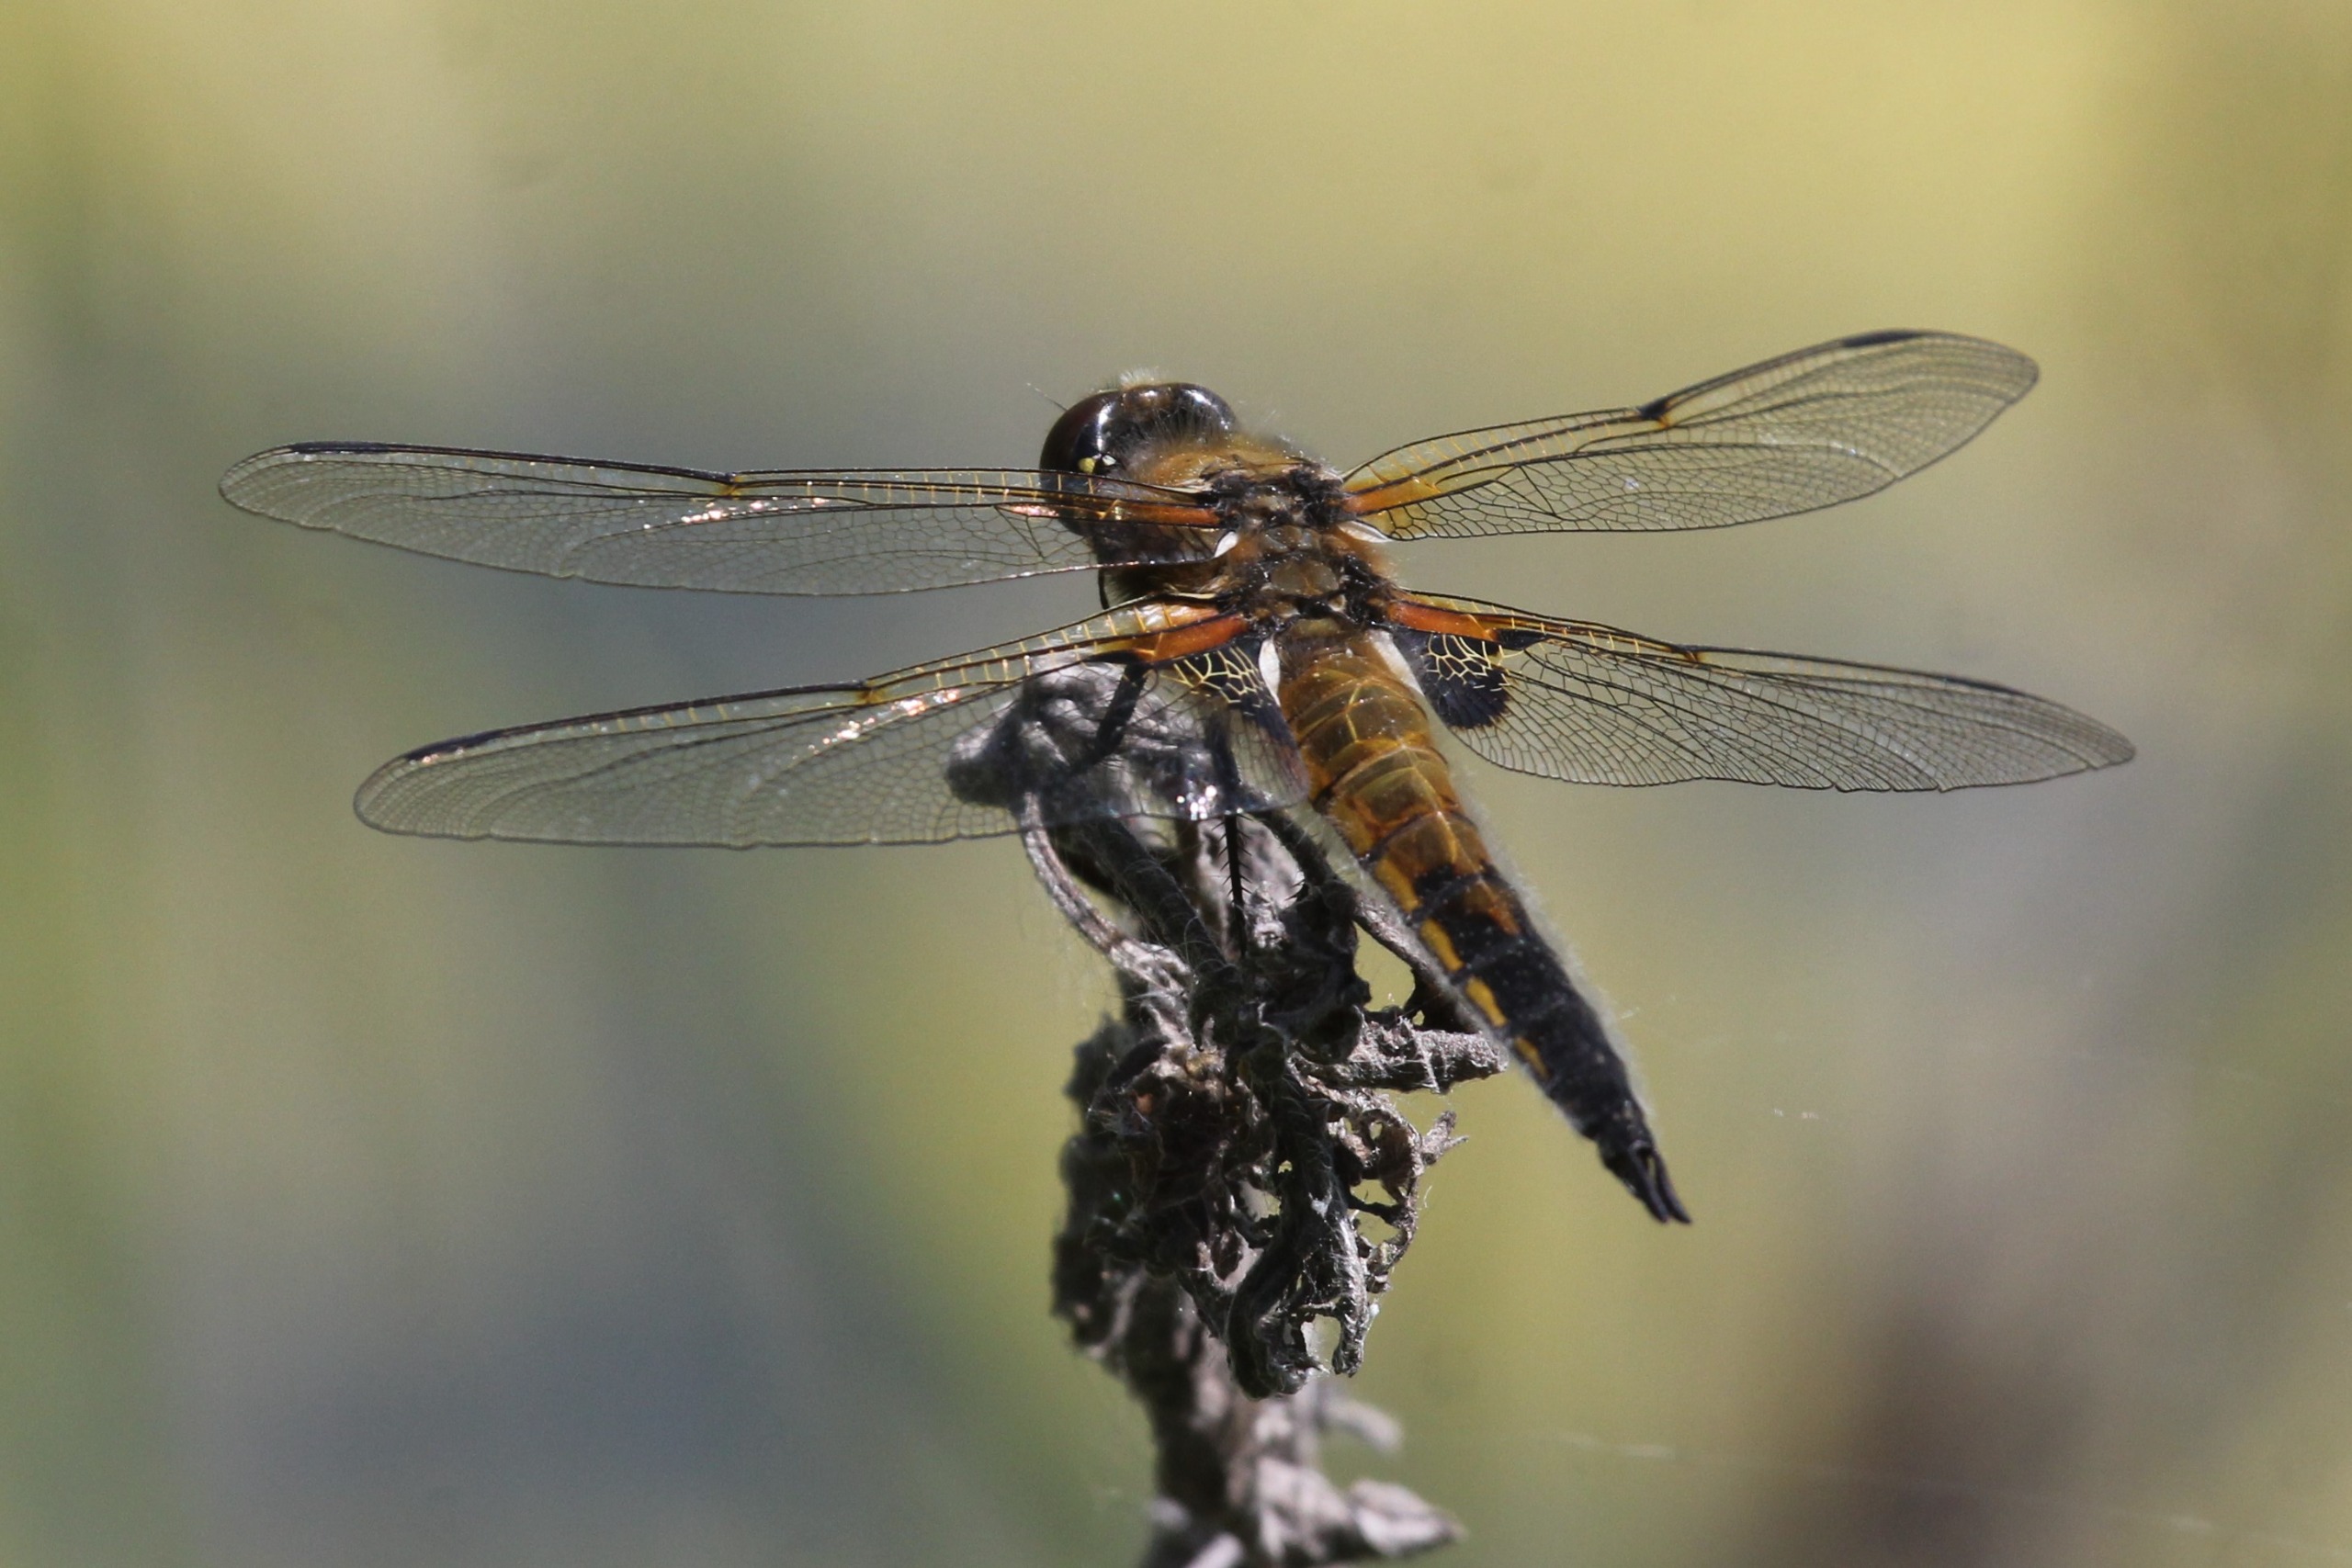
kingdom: Animalia
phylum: Arthropoda
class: Insecta
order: Odonata
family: Libellulidae
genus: Libellula
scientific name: Libellula quadrimaculata
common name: Fireplettet libel
